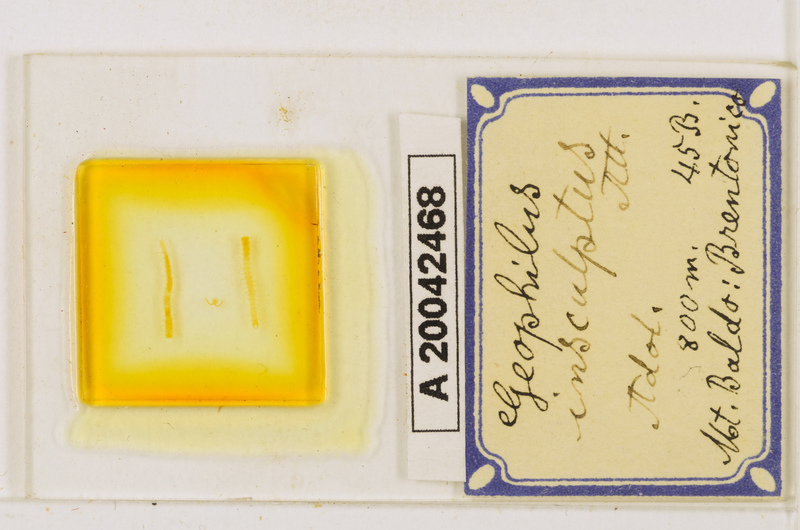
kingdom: Animalia
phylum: Arthropoda
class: Chilopoda
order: Geophilomorpha
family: Geophilidae
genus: Geophilus
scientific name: Geophilus insculptus
